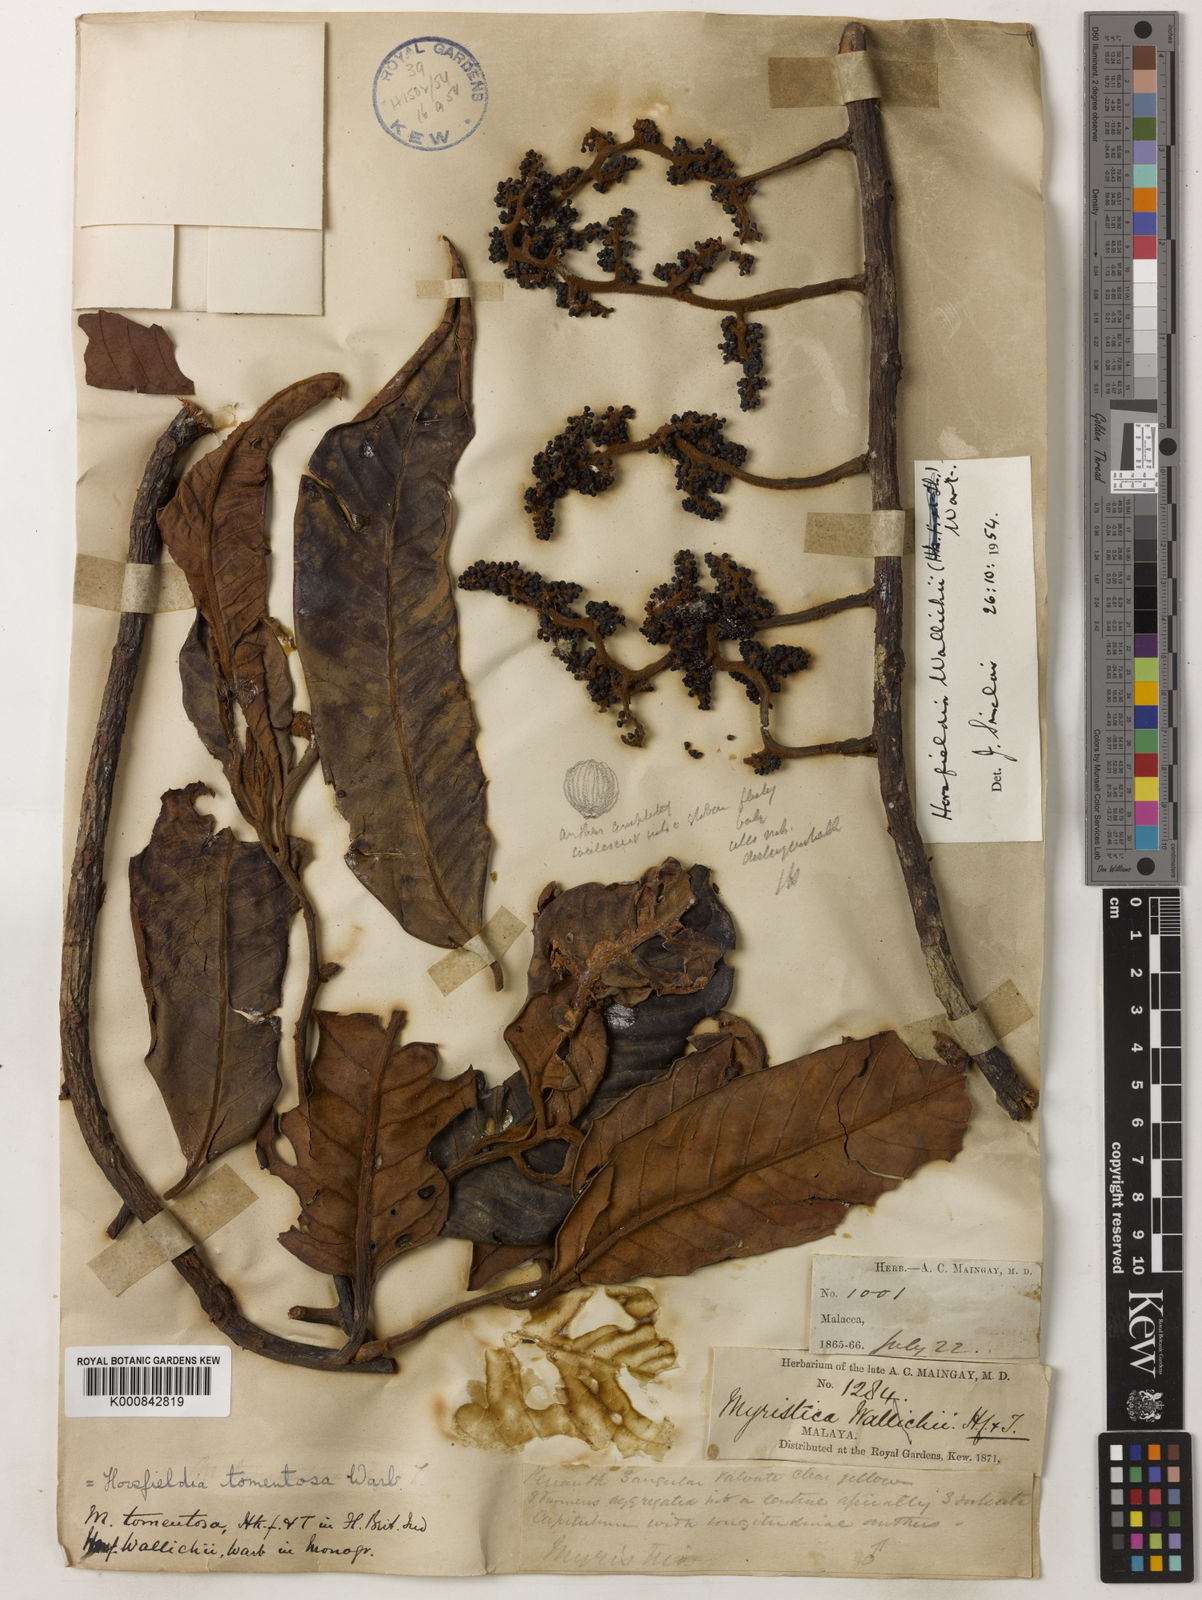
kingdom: Plantae
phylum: Tracheophyta
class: Magnoliopsida
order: Magnoliales
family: Myristicaceae
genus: Horsfieldia
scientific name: Horsfieldia wallichii
